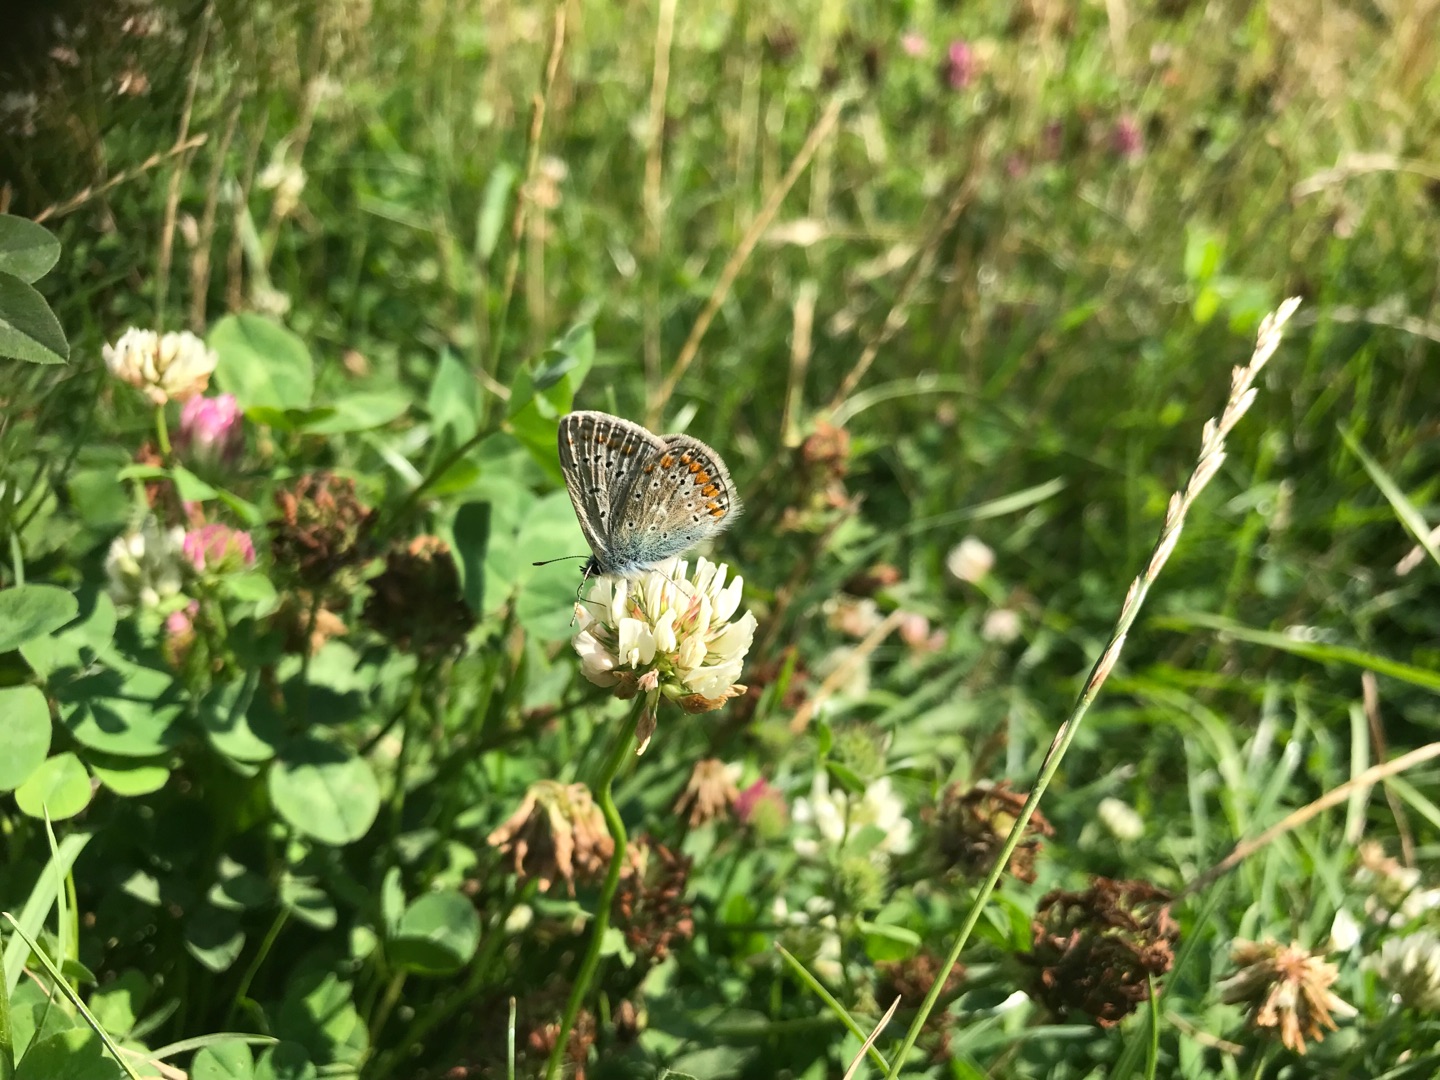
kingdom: Animalia
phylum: Arthropoda
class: Insecta
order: Lepidoptera
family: Lycaenidae
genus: Polyommatus
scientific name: Polyommatus icarus
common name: Almindelig blåfugl
